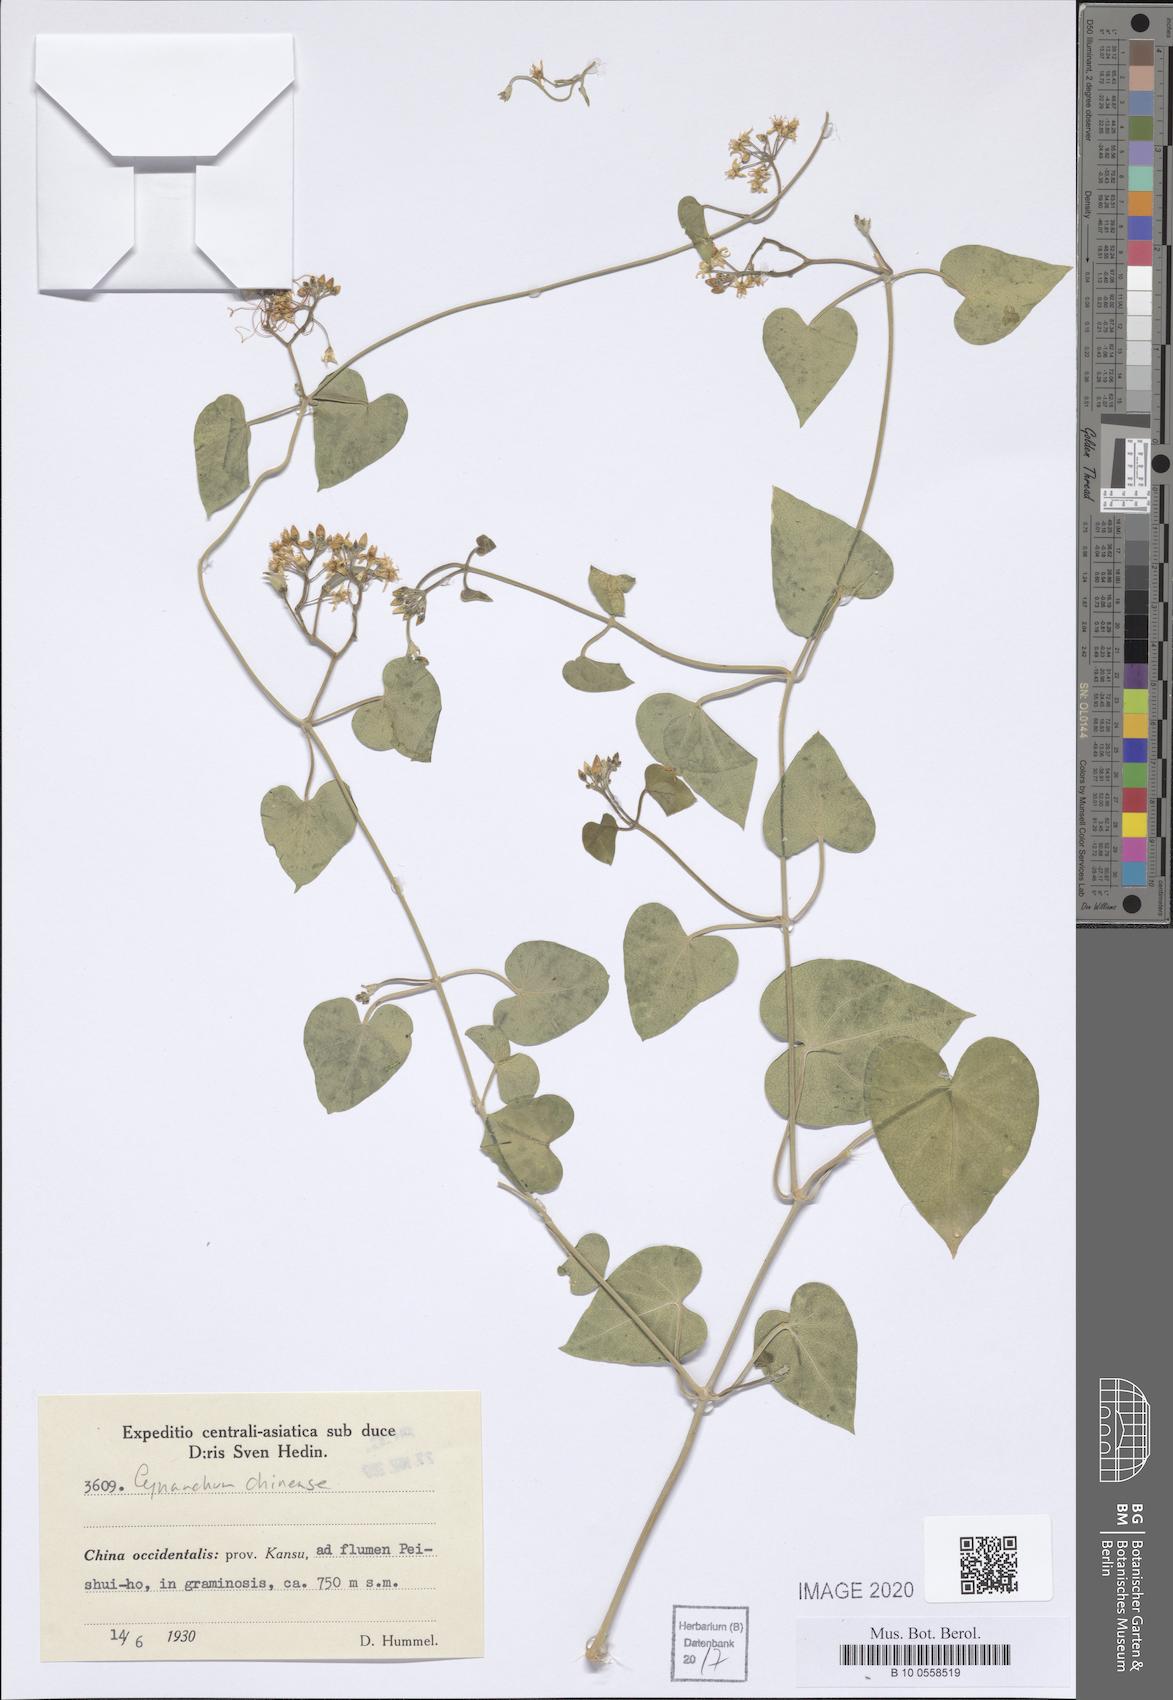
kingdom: Plantae
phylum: Tracheophyta
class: Magnoliopsida
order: Gentianales
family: Apocynaceae
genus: Vincetoxicum
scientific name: Vincetoxicum pubescens
